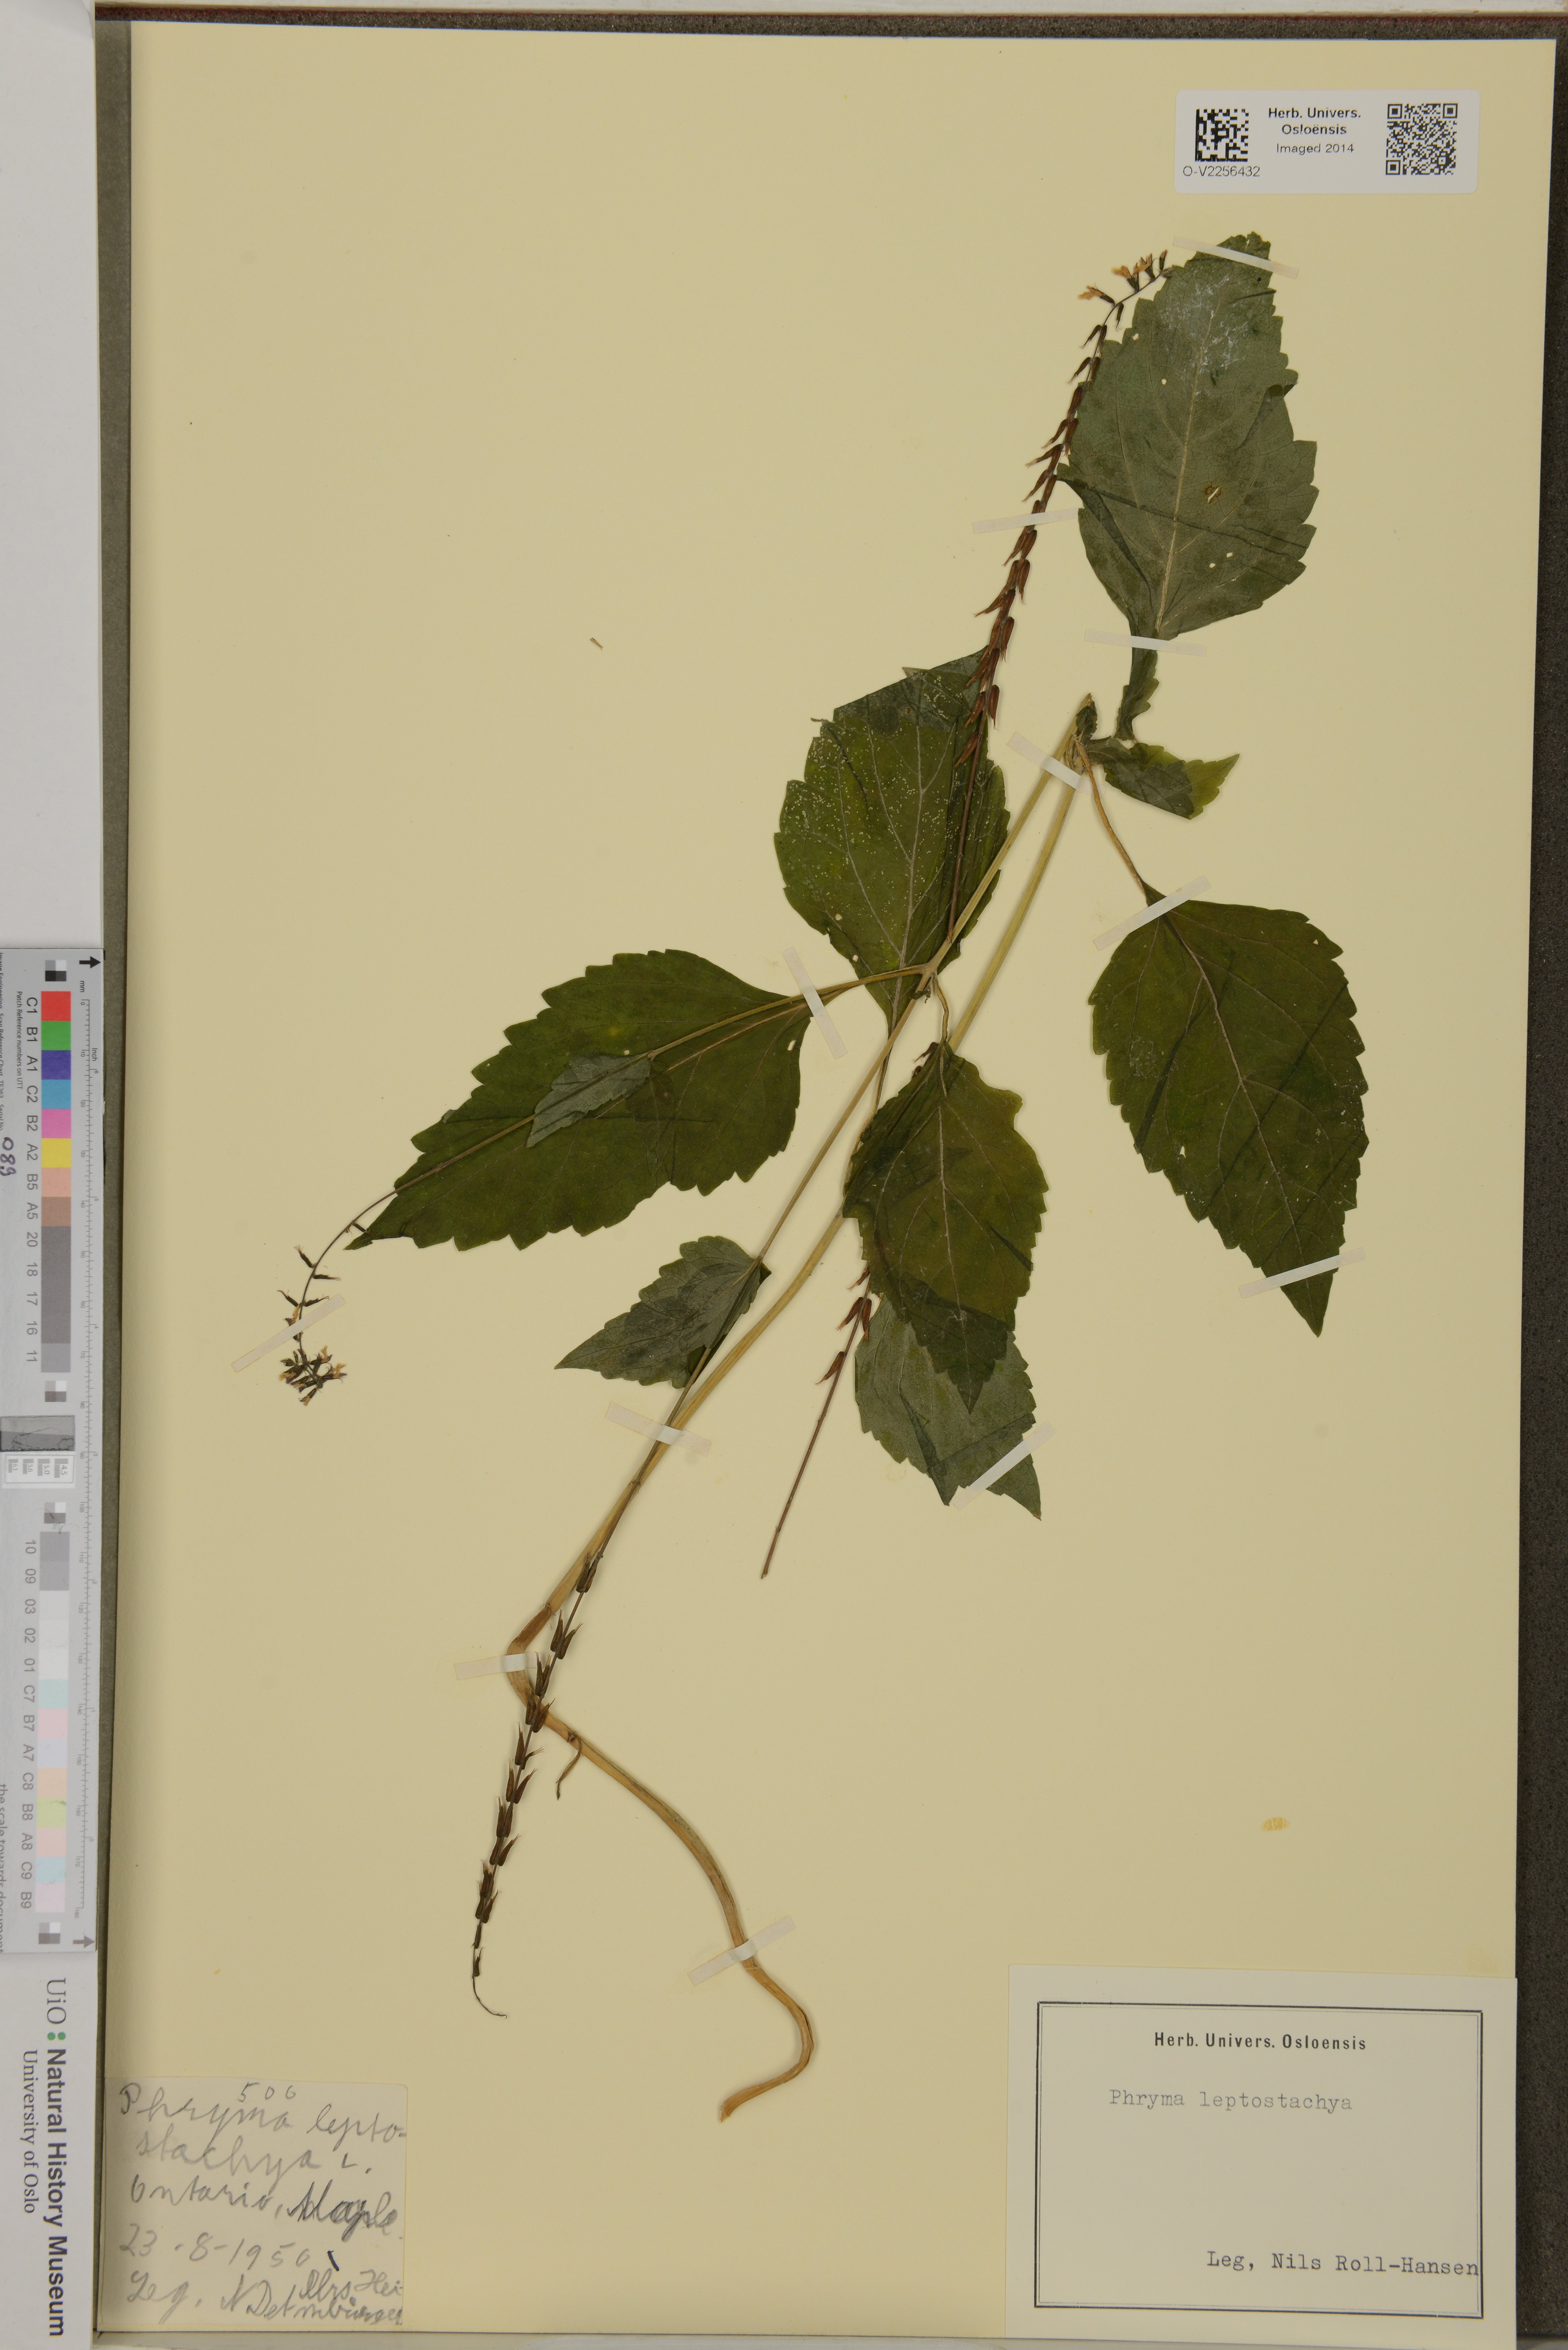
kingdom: Plantae
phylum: Tracheophyta
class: Magnoliopsida
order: Lamiales
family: Phrymaceae
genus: Phryma
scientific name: Phryma leptostachya
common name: American lopseed
